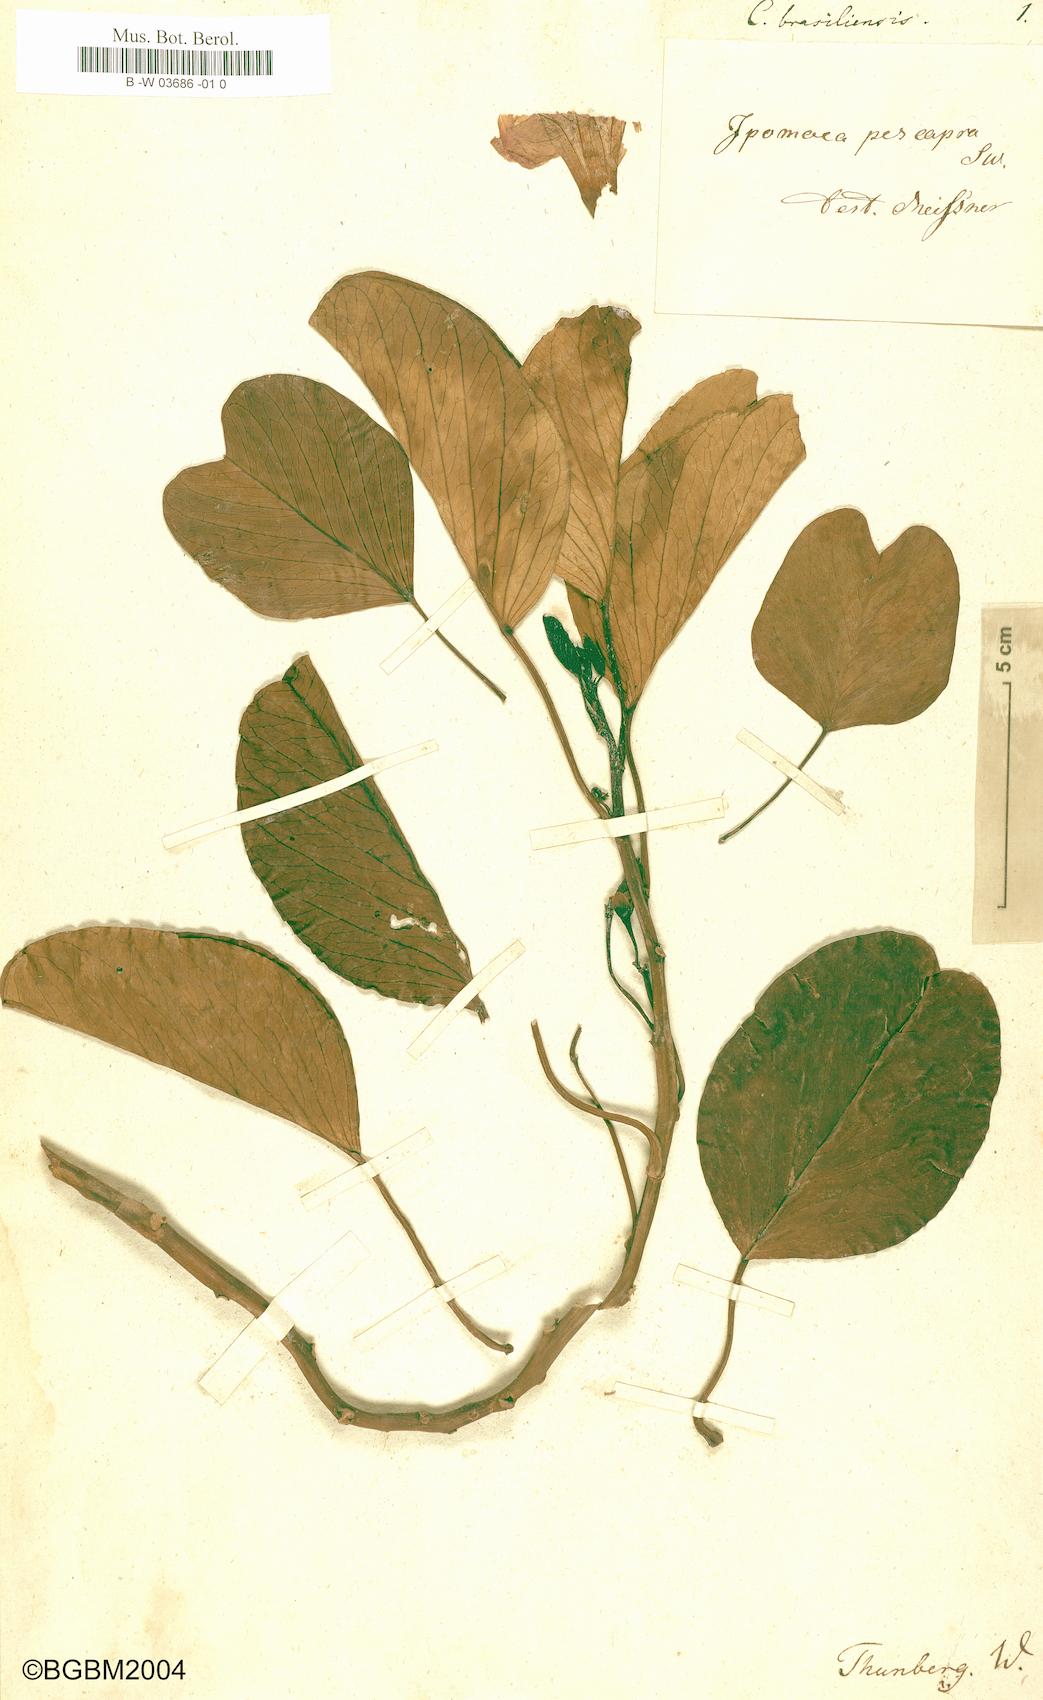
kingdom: Plantae
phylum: Tracheophyta
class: Magnoliopsida
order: Solanales
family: Convolvulaceae
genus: Ipomoea
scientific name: Ipomoea pes-caprae
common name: Beach morning glory
